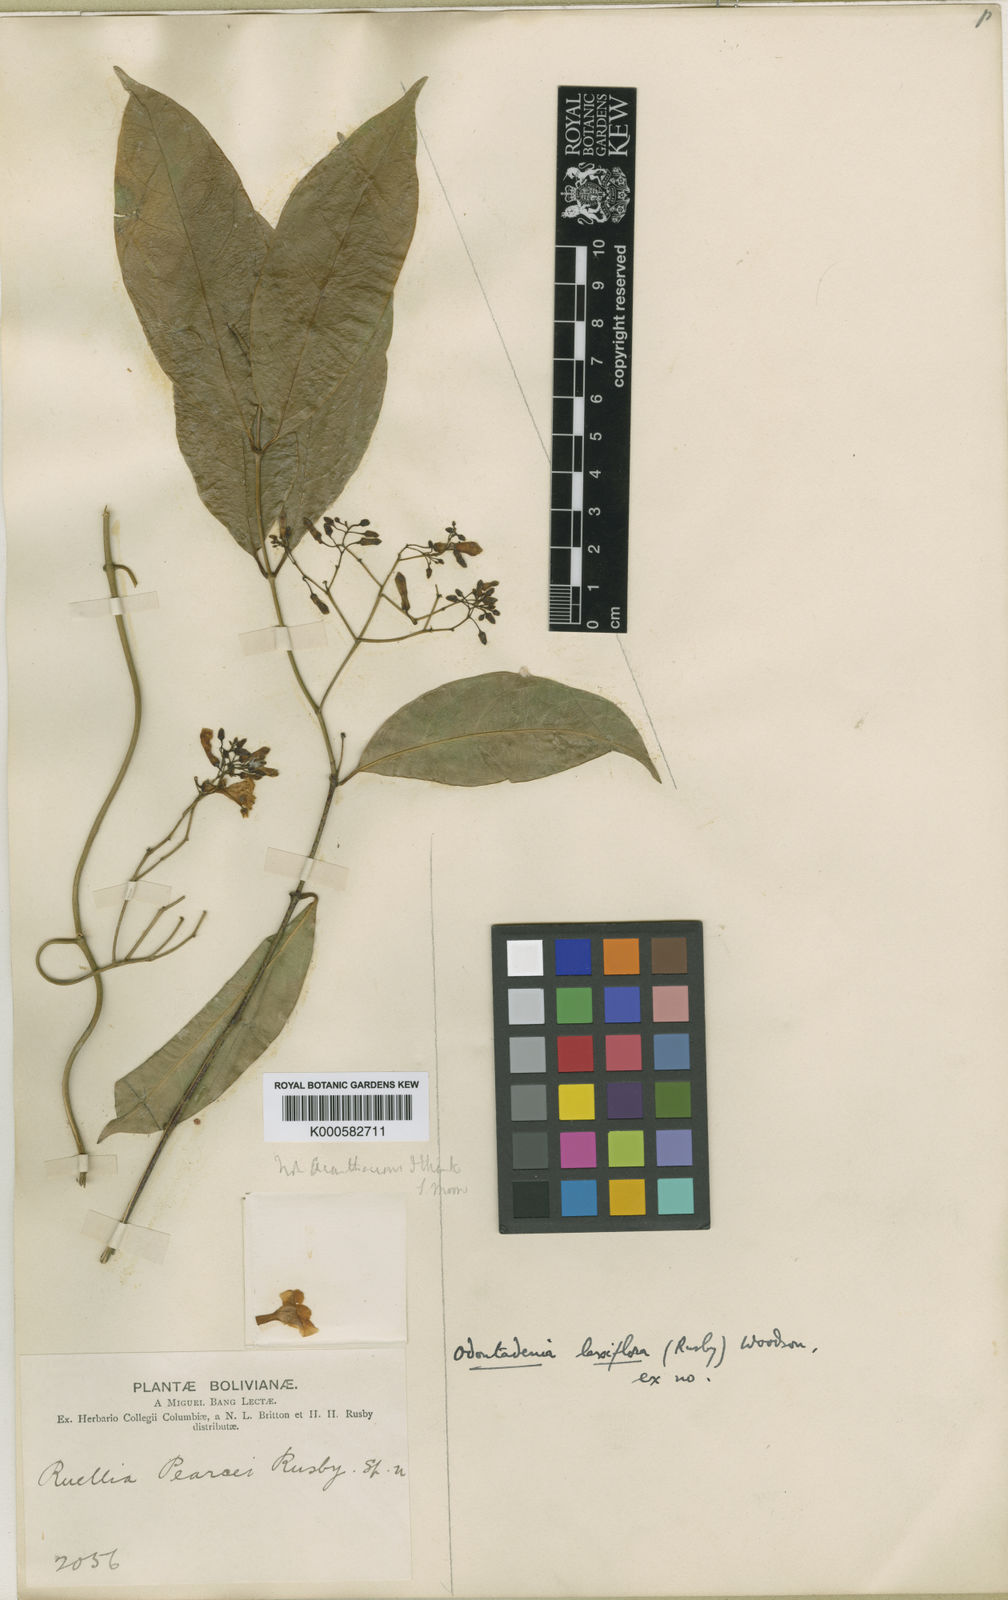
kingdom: Plantae
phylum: Tracheophyta
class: Magnoliopsida
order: Gentianales
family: Apocynaceae
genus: Odontadenia
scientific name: Odontadenia laxiflora
